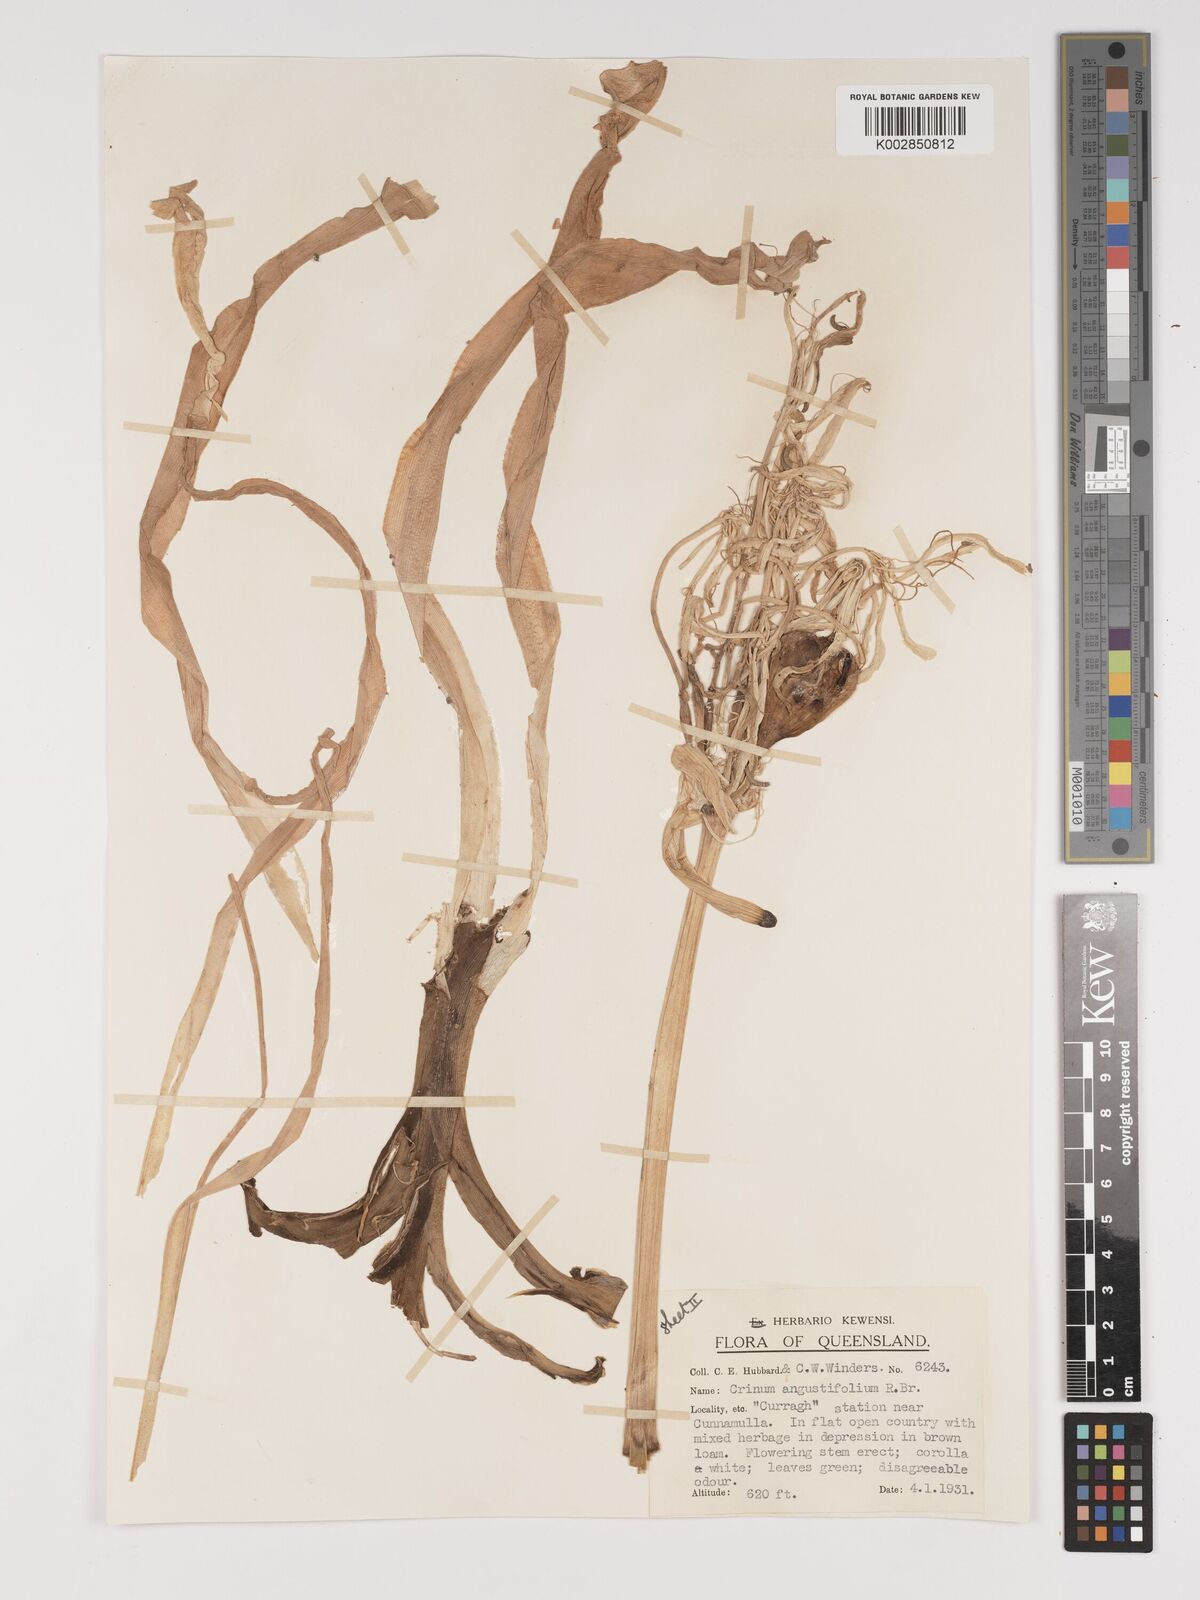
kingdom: Plantae
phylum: Tracheophyta
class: Liliopsida
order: Asparagales
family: Amaryllidaceae
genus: Crinum
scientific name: Crinum arenarium
